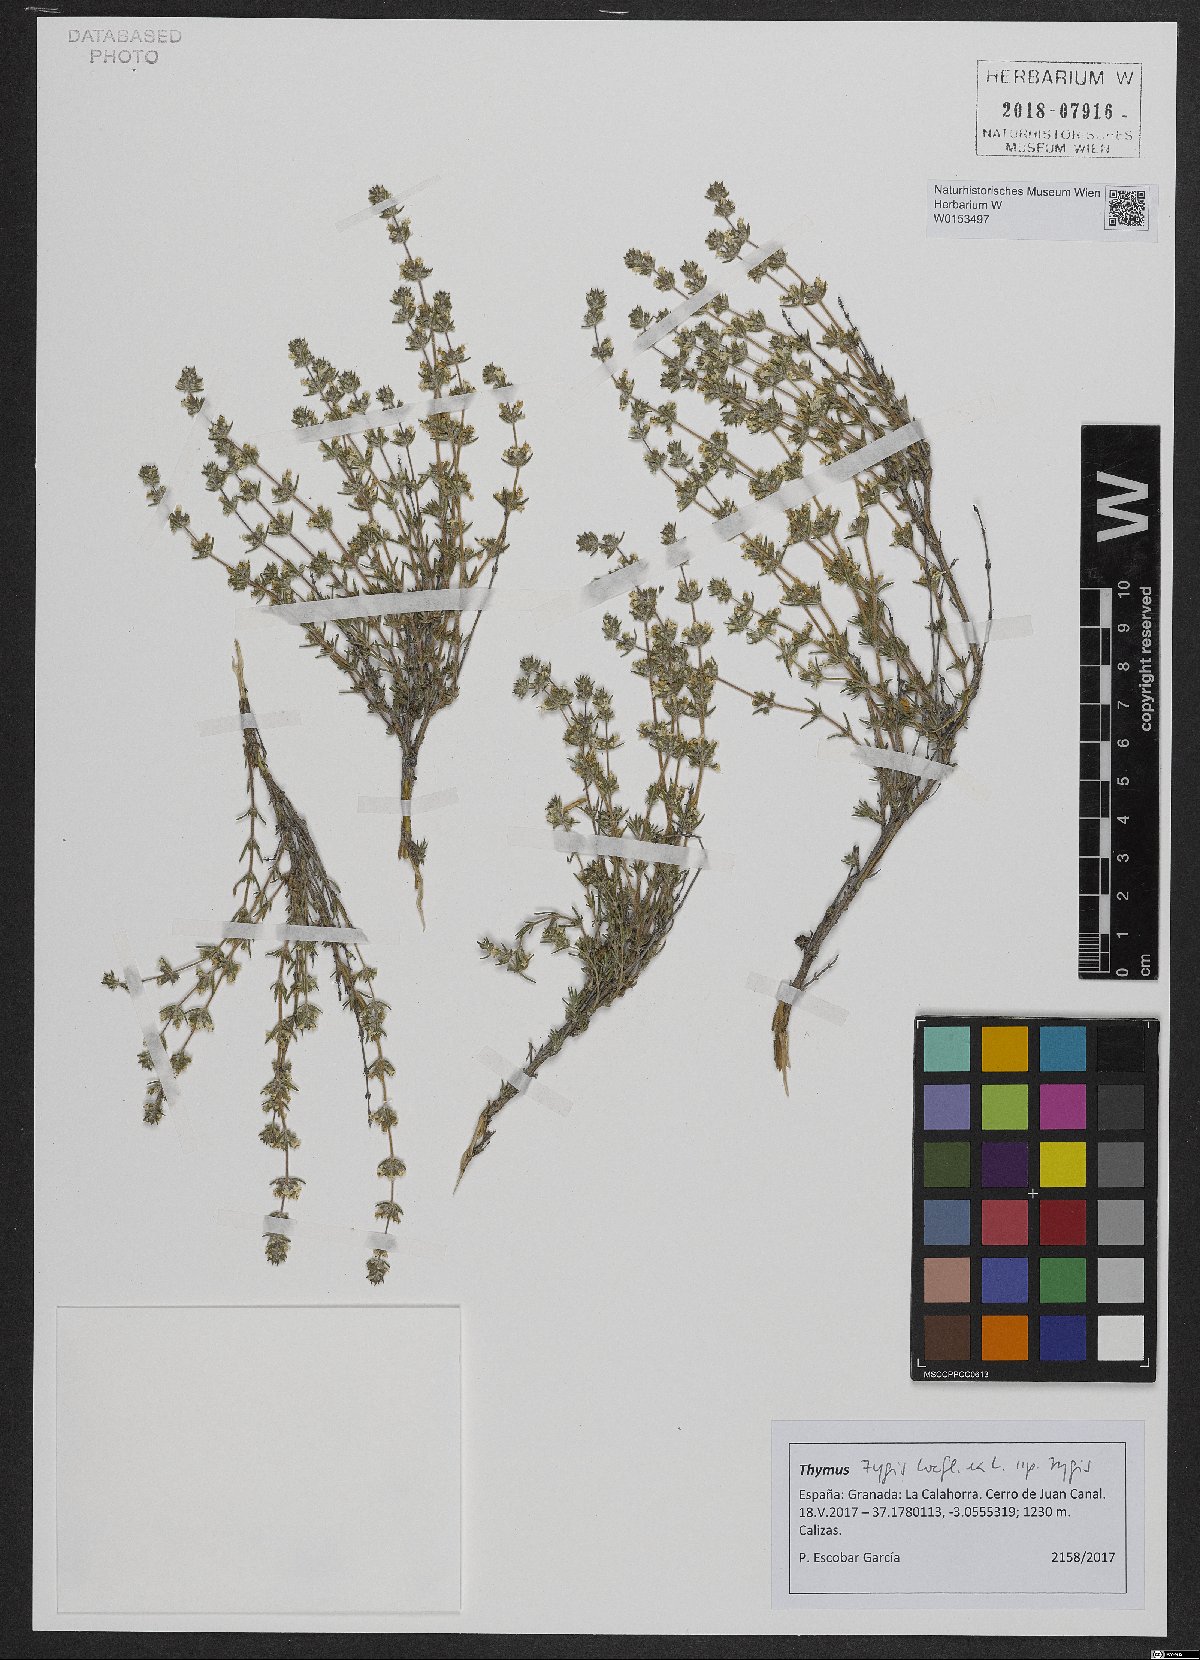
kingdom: Plantae
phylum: Tracheophyta
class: Magnoliopsida
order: Lamiales
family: Lamiaceae
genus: Thymus
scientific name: Thymus zygis
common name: White thyme
